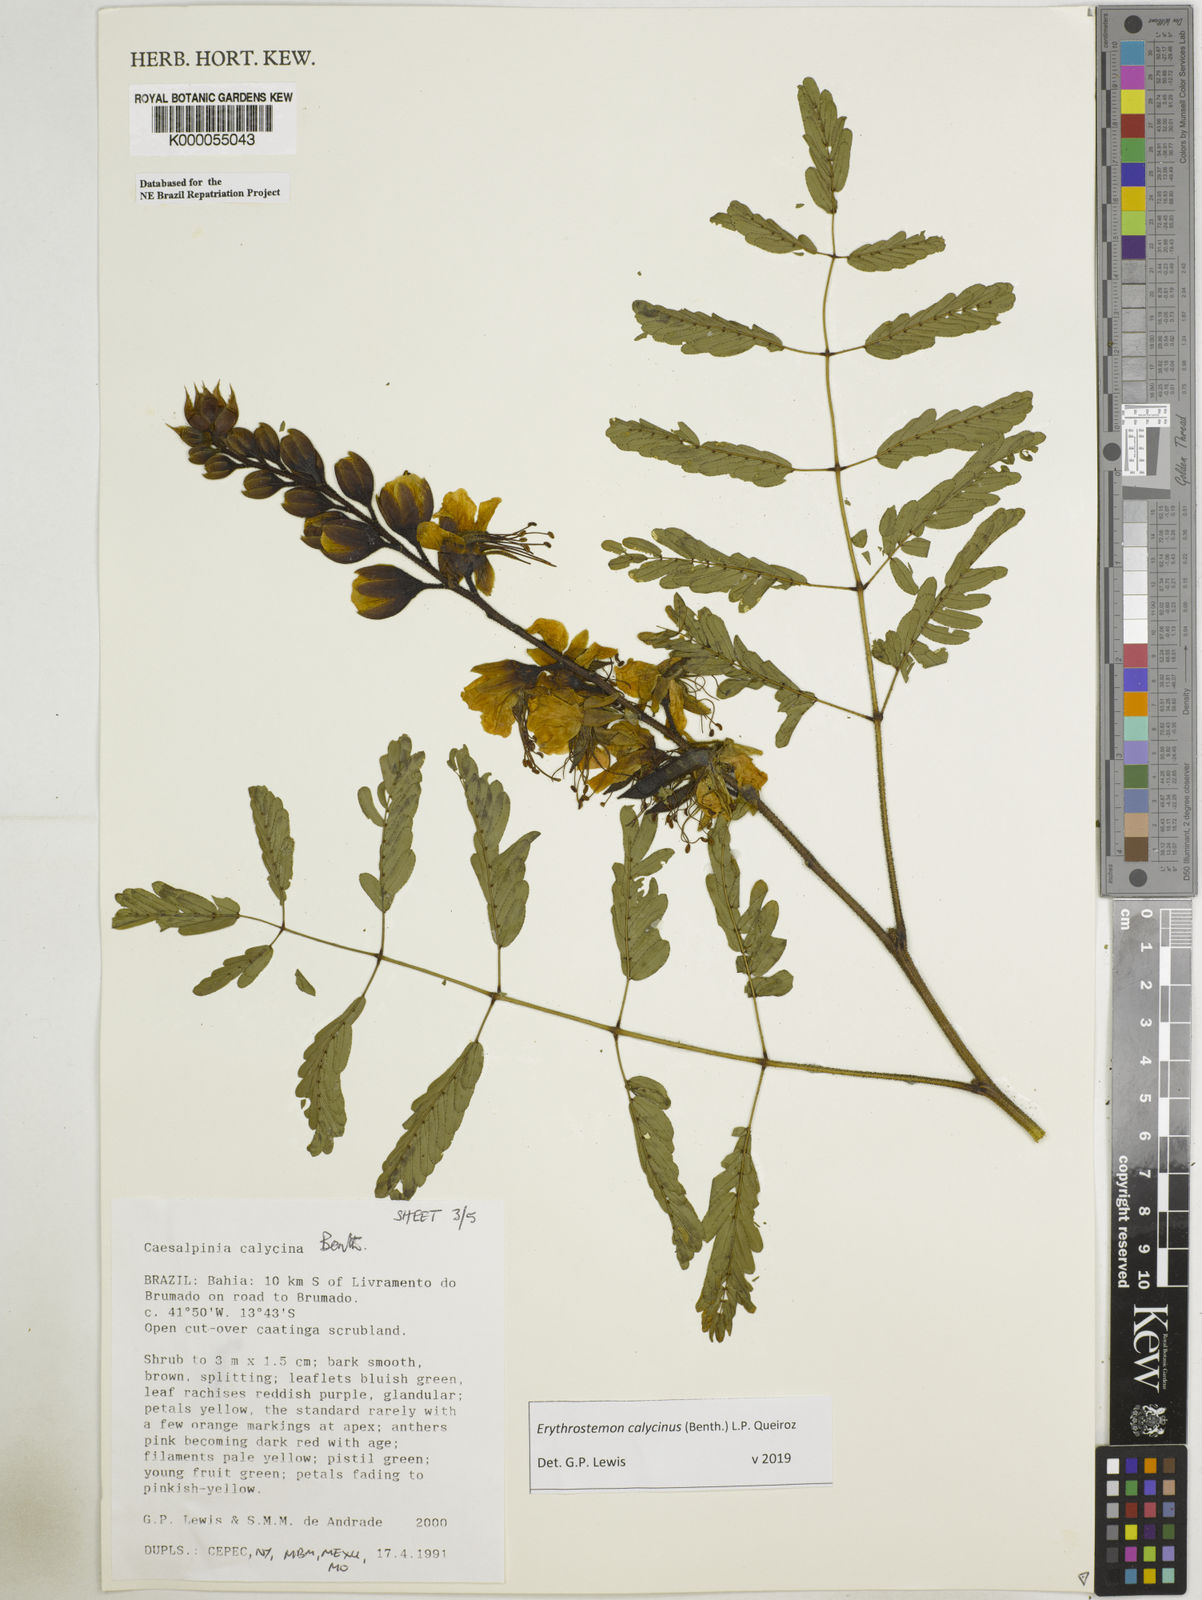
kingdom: Plantae
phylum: Tracheophyta
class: Magnoliopsida
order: Fabales
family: Fabaceae
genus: Erythrostemon
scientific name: Erythrostemon calycinus
